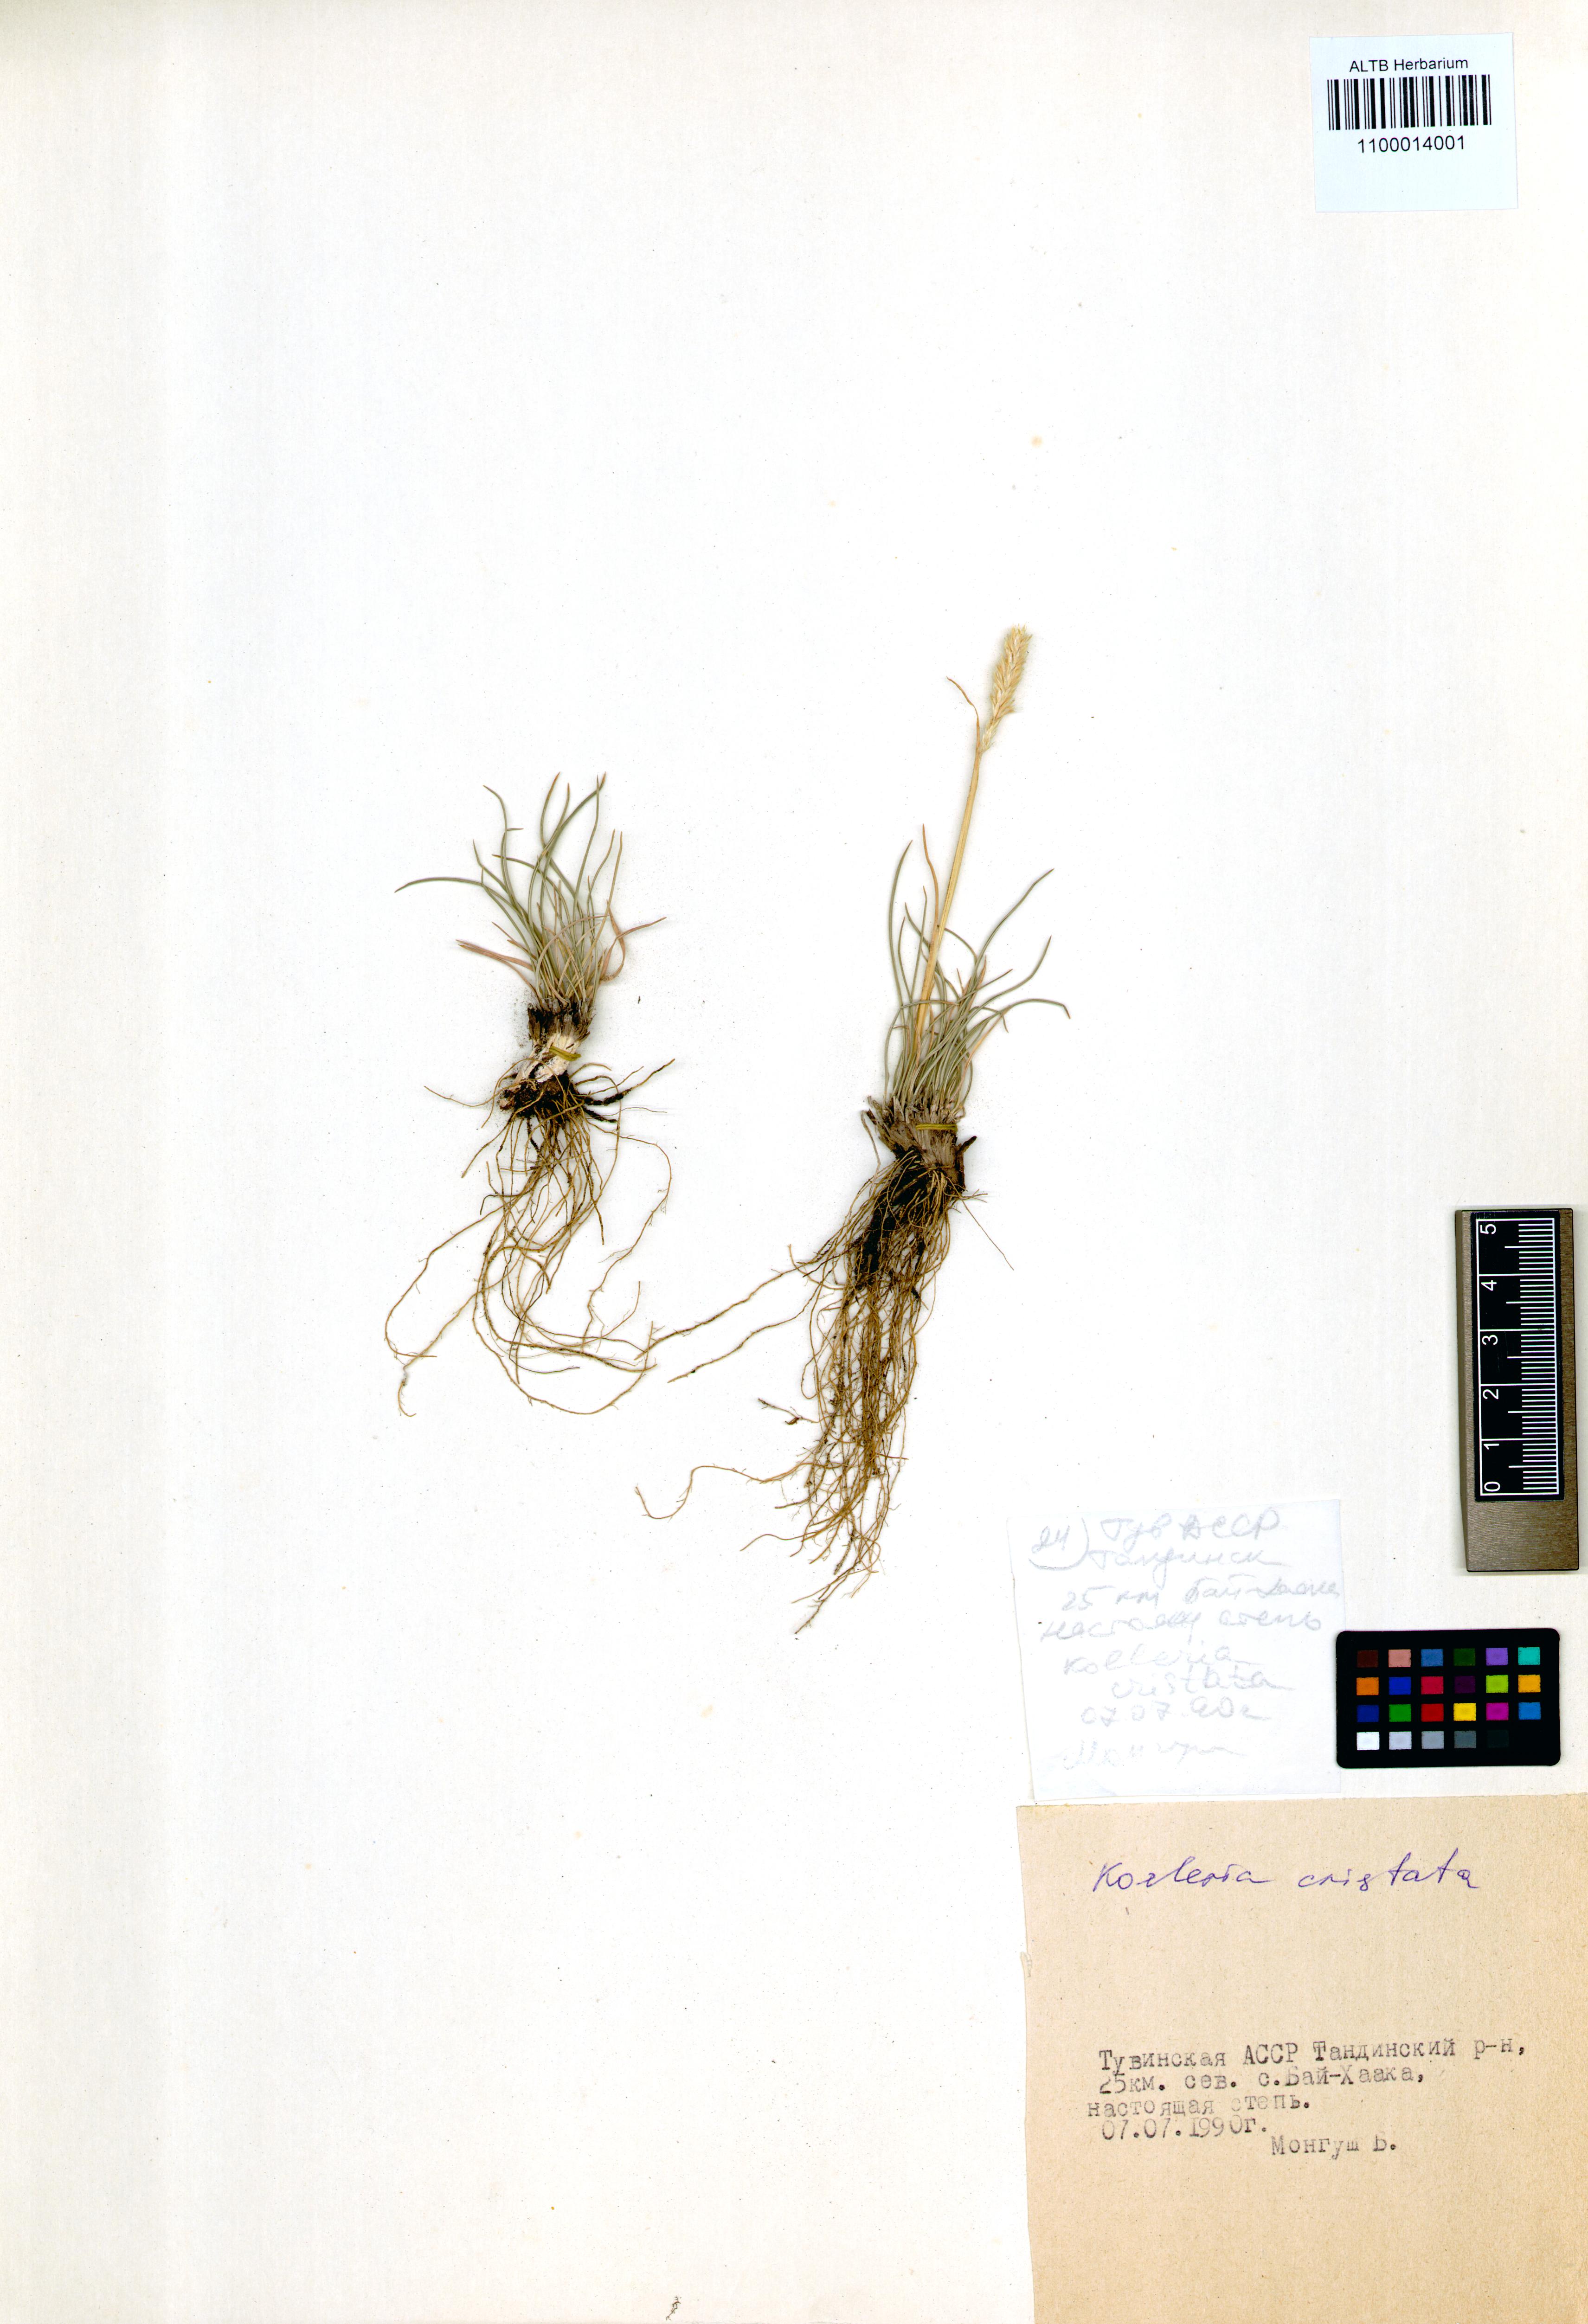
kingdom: Plantae
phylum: Tracheophyta
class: Liliopsida
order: Poales
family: Poaceae
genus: Koeleria
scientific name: Koeleria pyramidata
